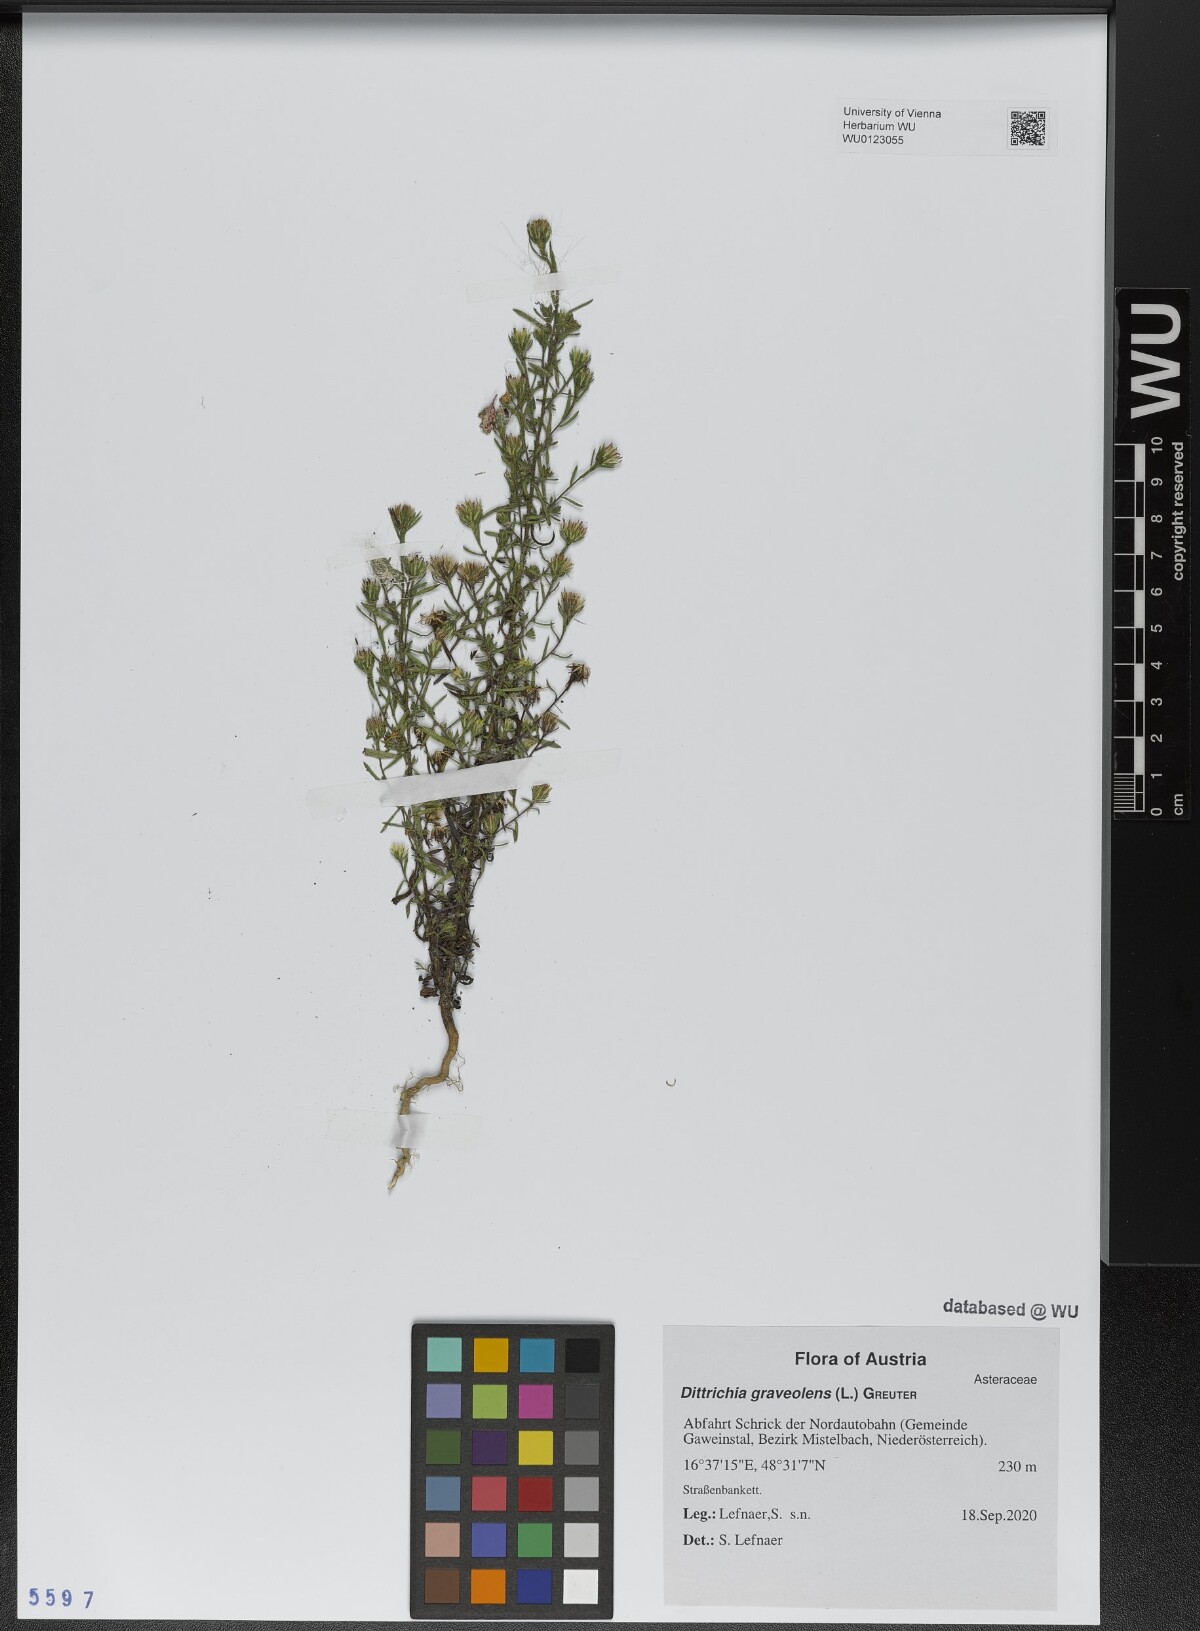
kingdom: Plantae
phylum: Tracheophyta
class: Magnoliopsida
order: Asterales
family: Asteraceae
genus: Dittrichia
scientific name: Dittrichia graveolens
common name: Stinking fleabane
